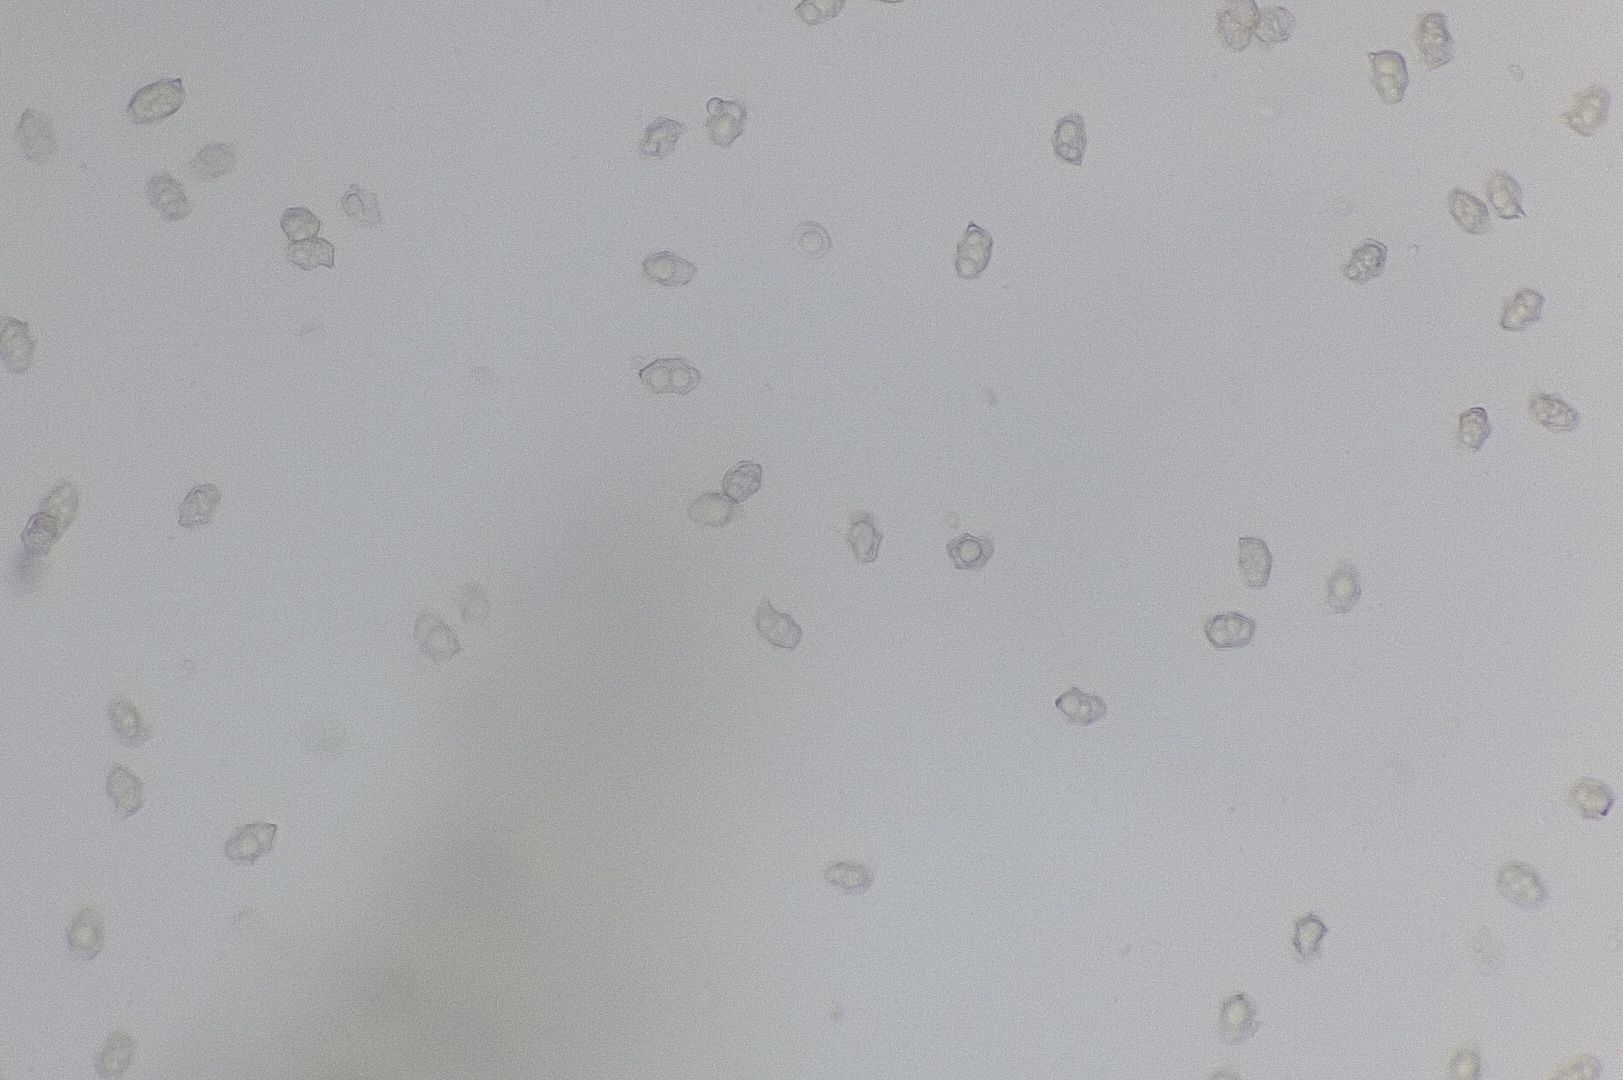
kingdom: Fungi
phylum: Basidiomycota
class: Agaricomycetes
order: Agaricales
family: Entolomataceae
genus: Entoloma
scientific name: Entoloma chalybeum
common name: blåbladet rødblad
